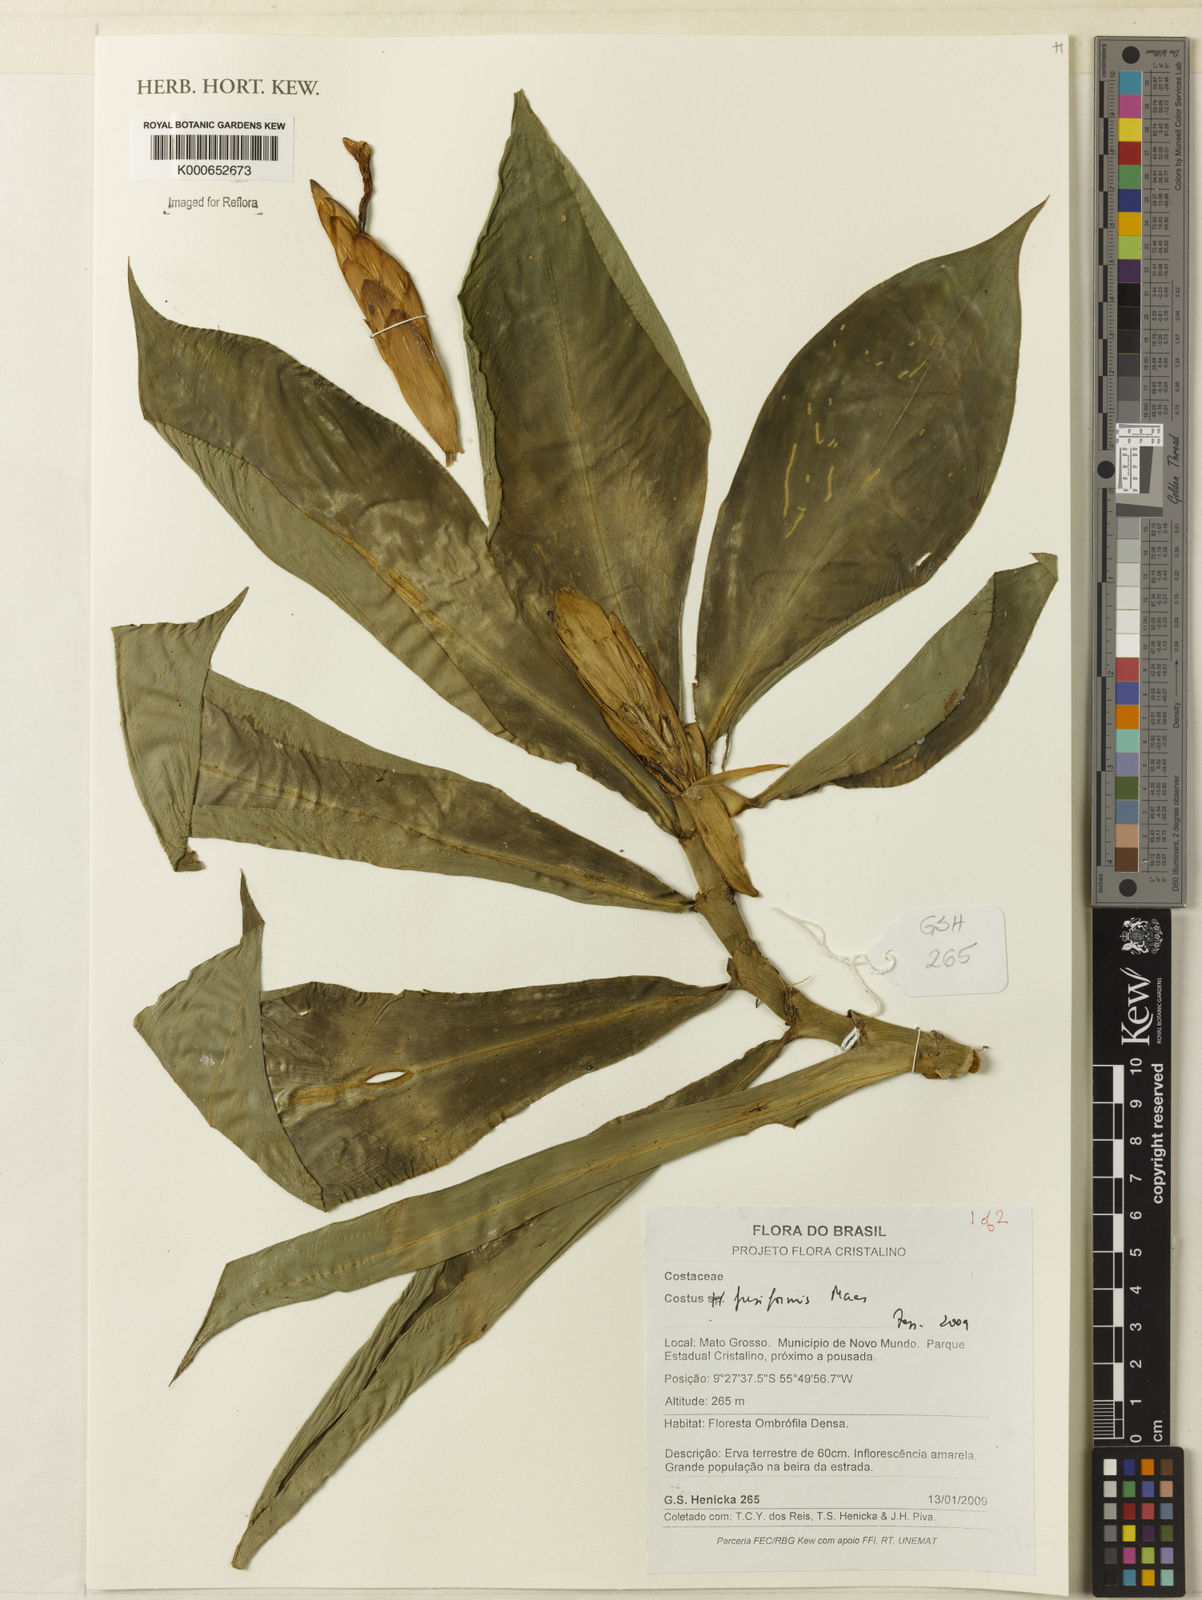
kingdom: Plantae
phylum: Tracheophyta
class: Liliopsida
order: Zingiberales
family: Costaceae
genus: Chamaecostus
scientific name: Chamaecostus fusiformis
